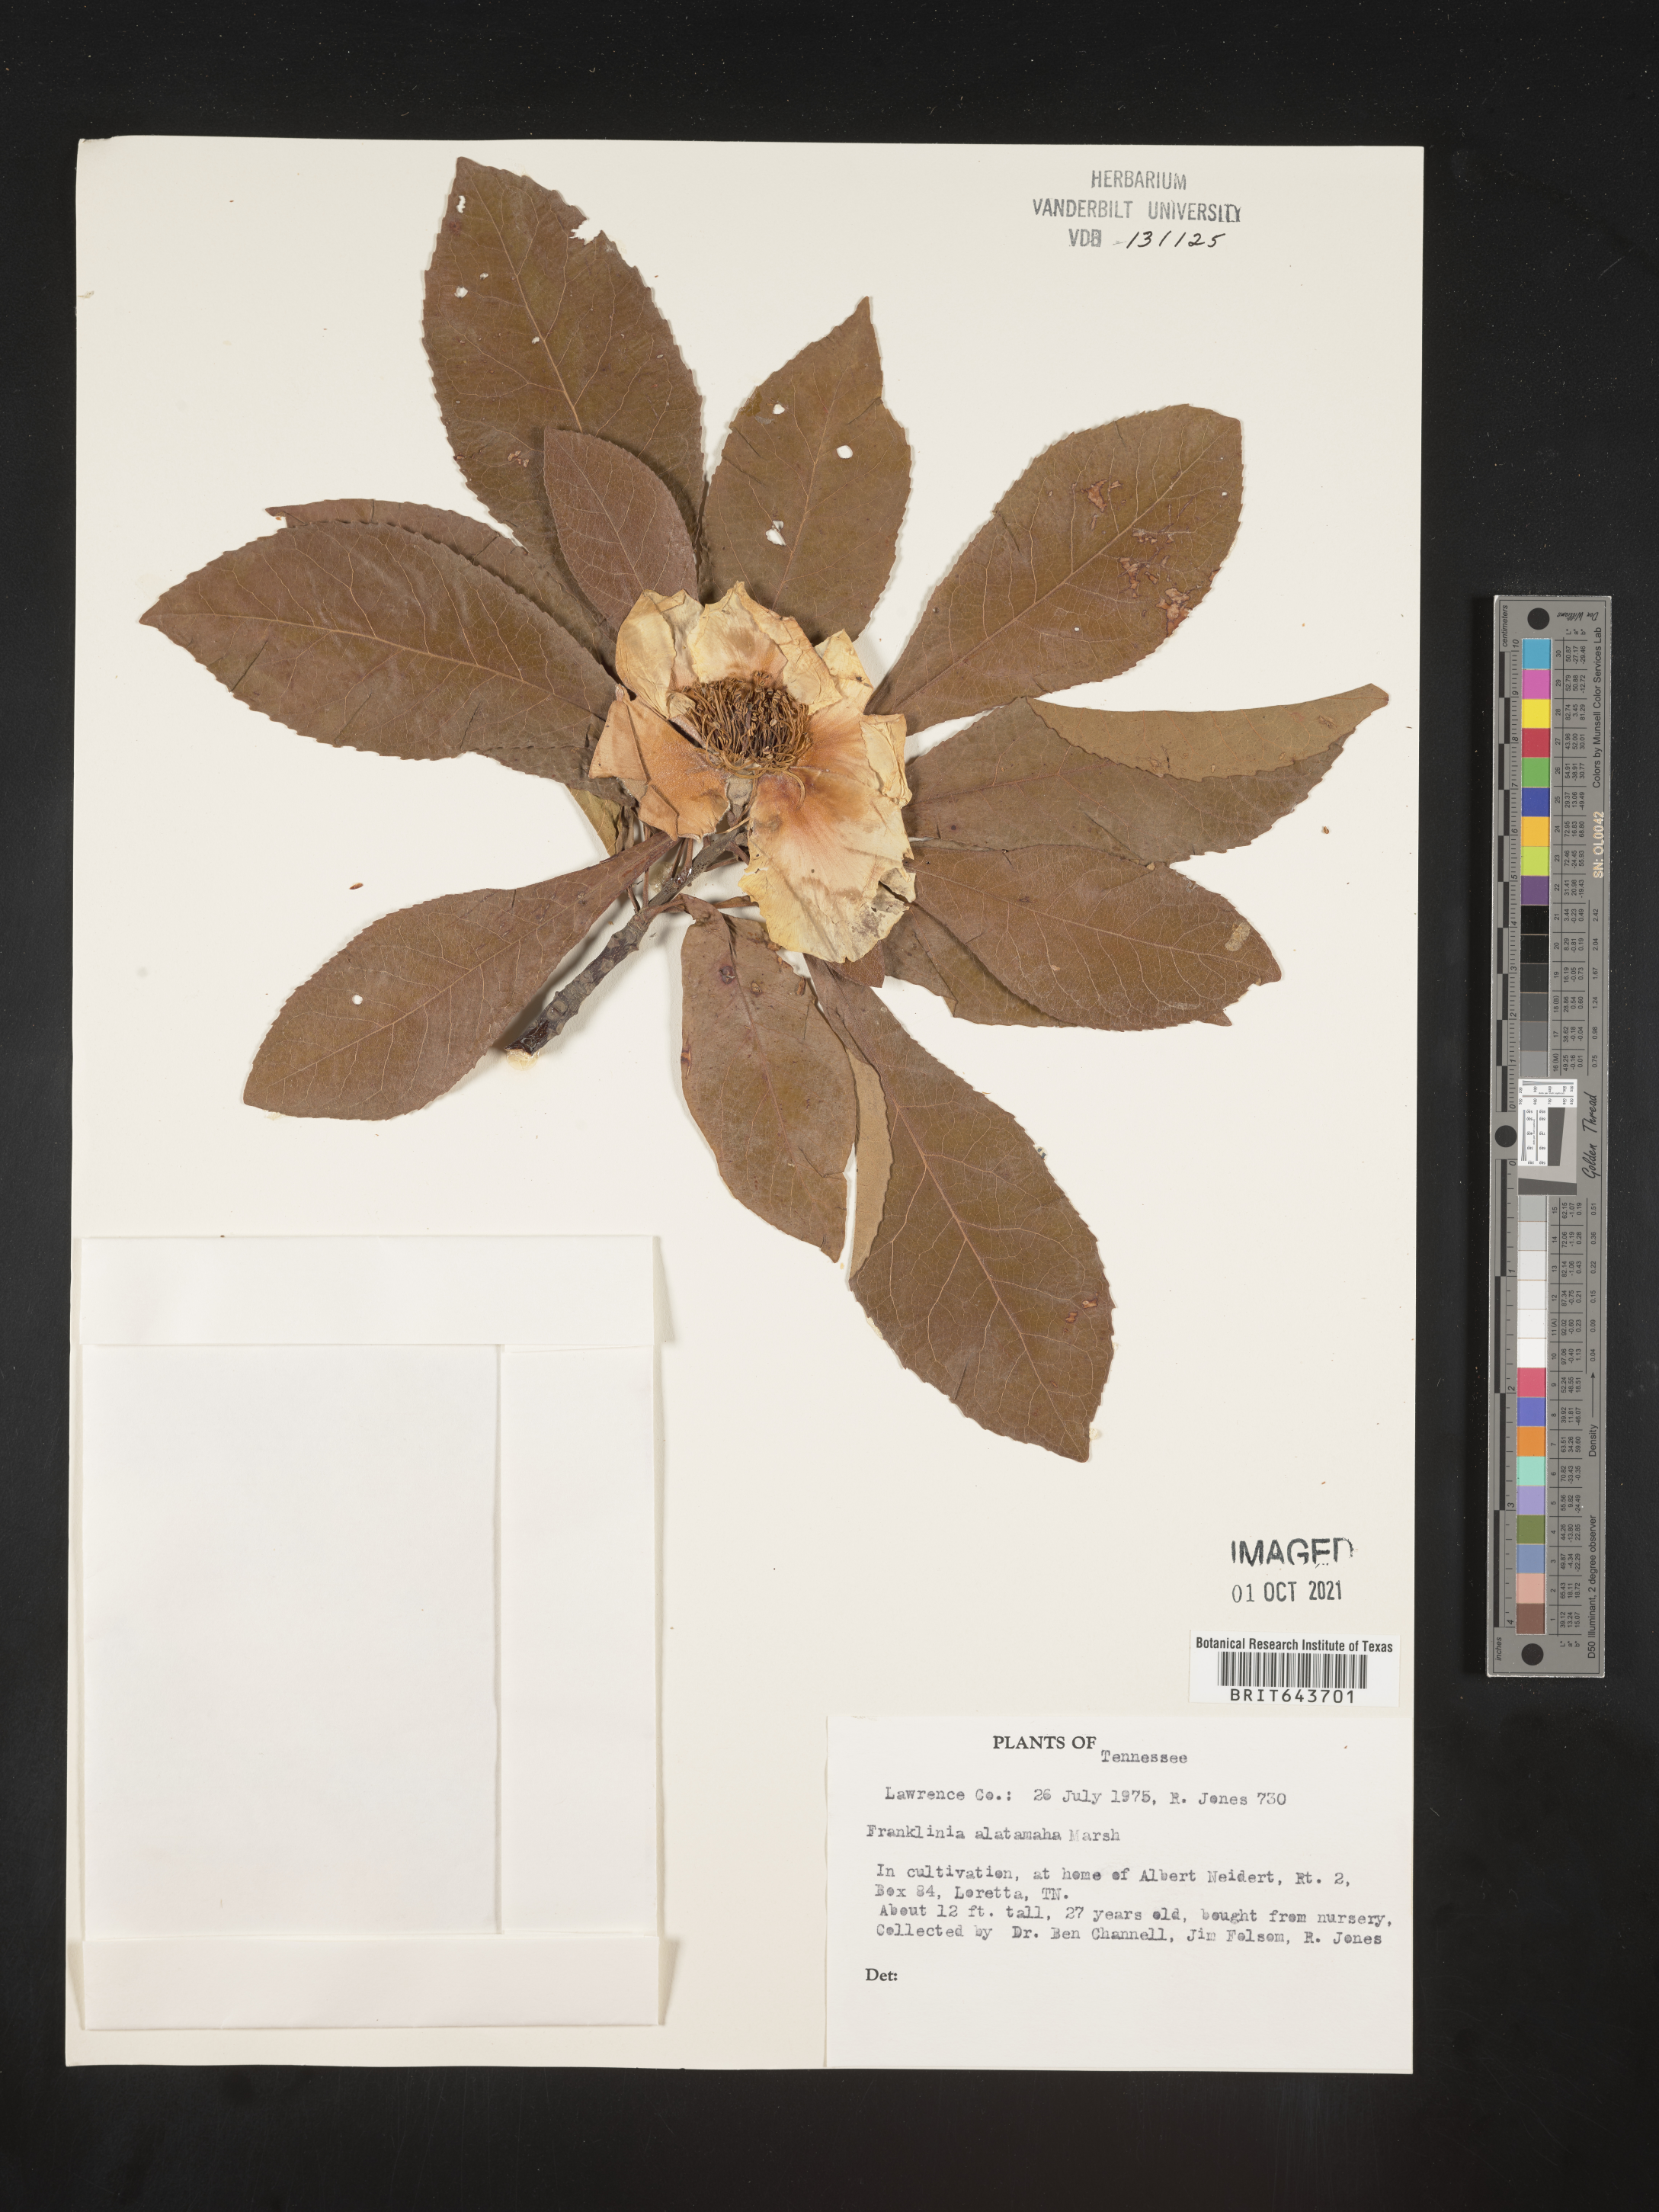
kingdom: Plantae
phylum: Tracheophyta
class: Magnoliopsida
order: Ericales
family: Theaceae
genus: Franklinia
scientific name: Franklinia
